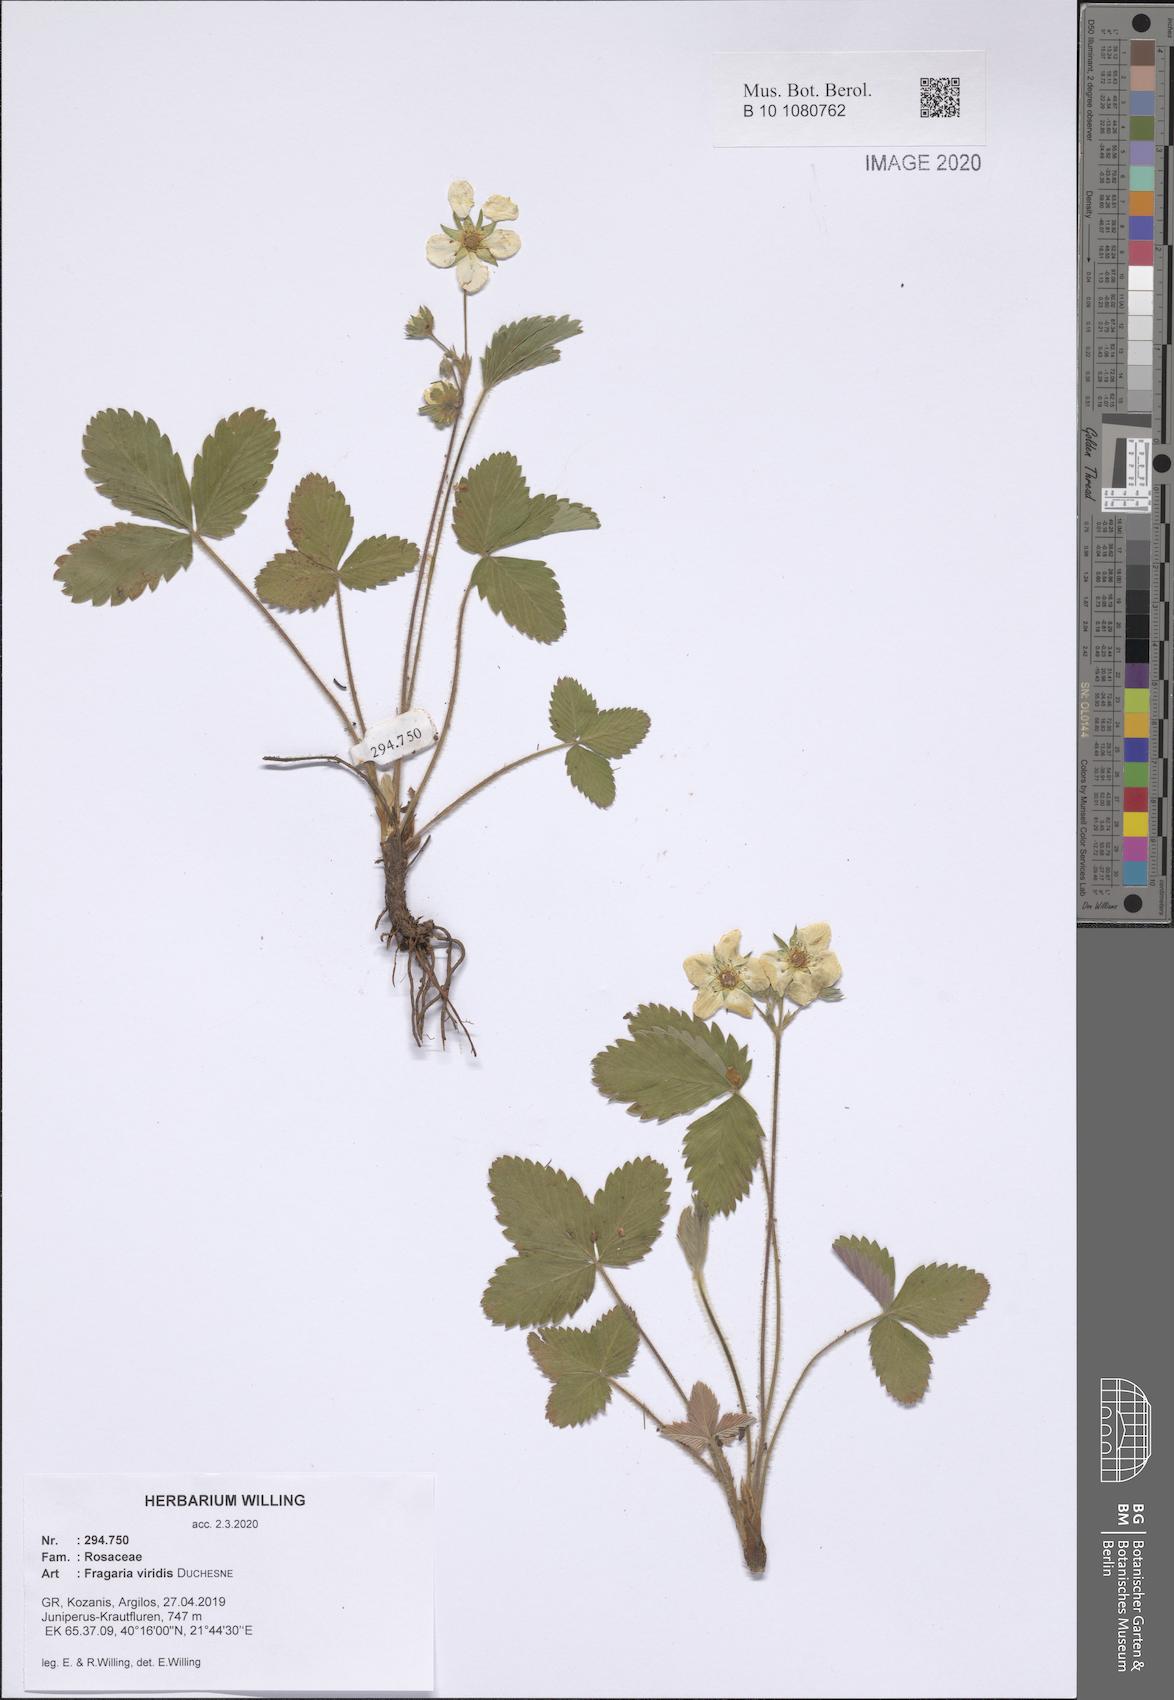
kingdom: Plantae
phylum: Tracheophyta
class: Magnoliopsida
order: Rosales
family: Rosaceae
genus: Fragaria
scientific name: Fragaria viridis
